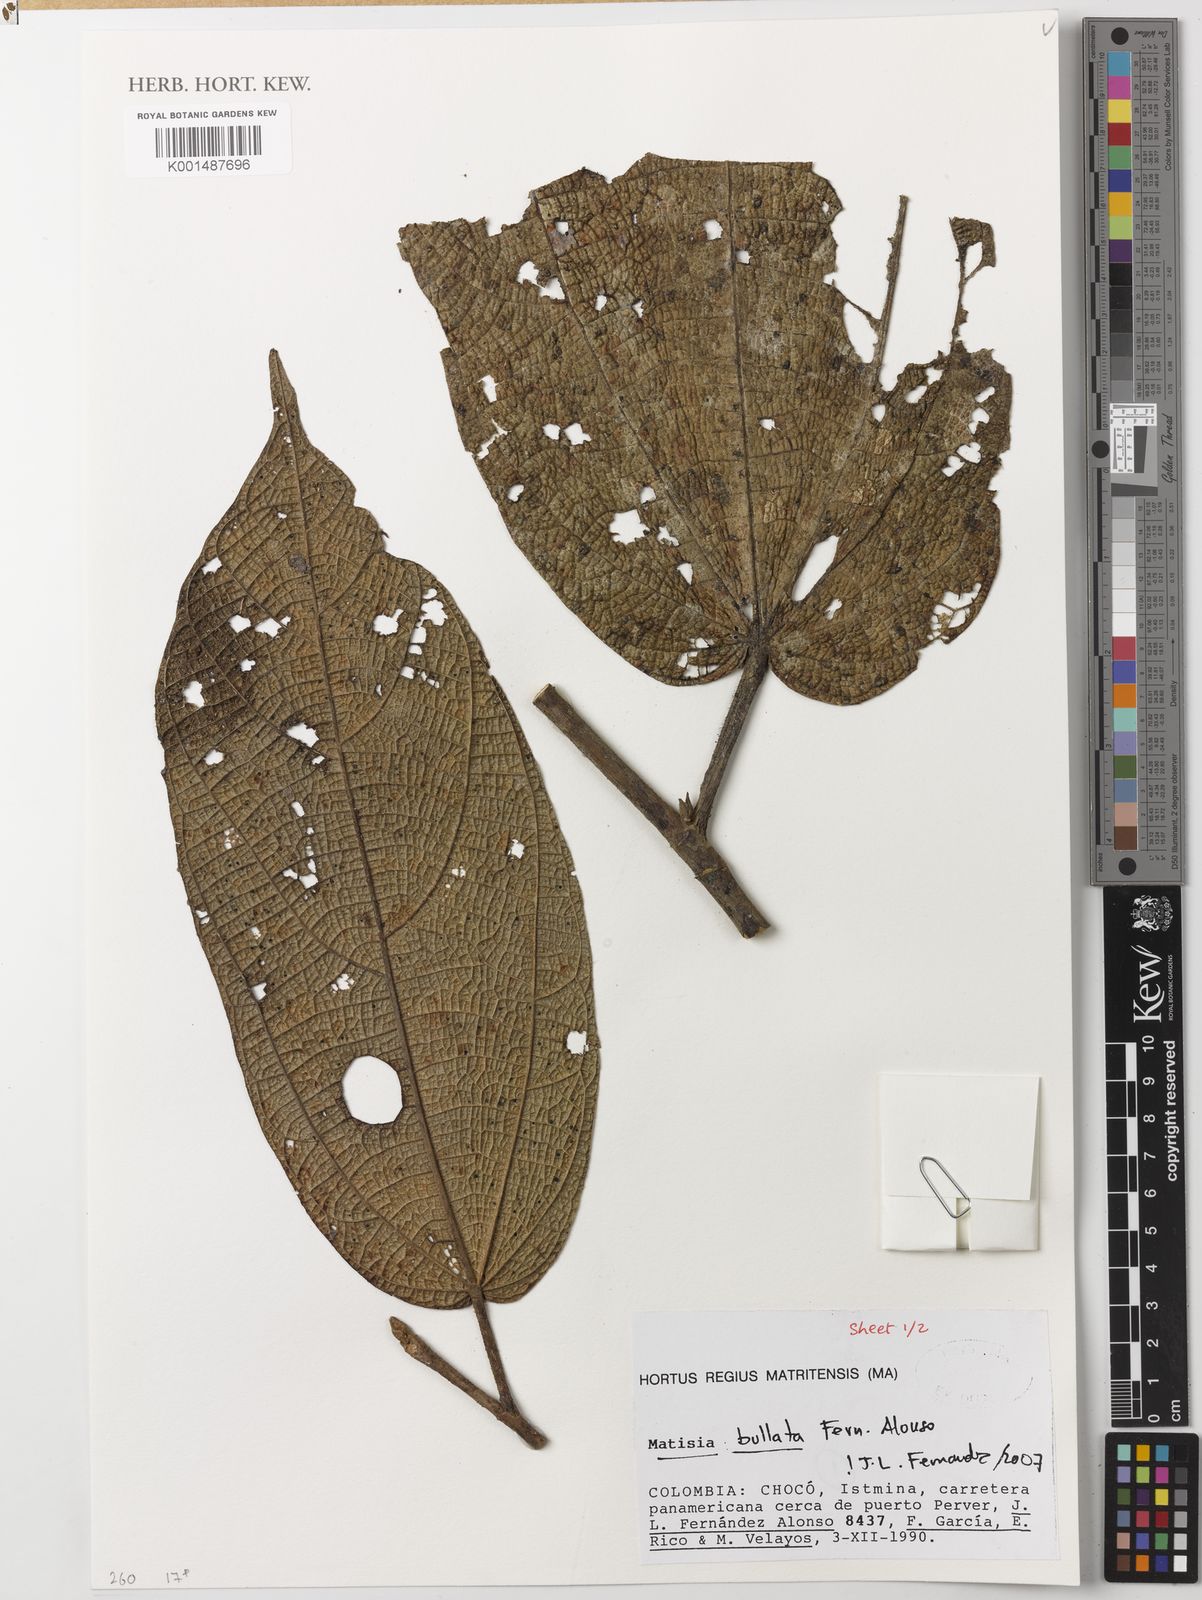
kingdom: Plantae
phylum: Tracheophyta
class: Magnoliopsida
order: Malvales
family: Malvaceae
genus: Matisia
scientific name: Matisia bullata
